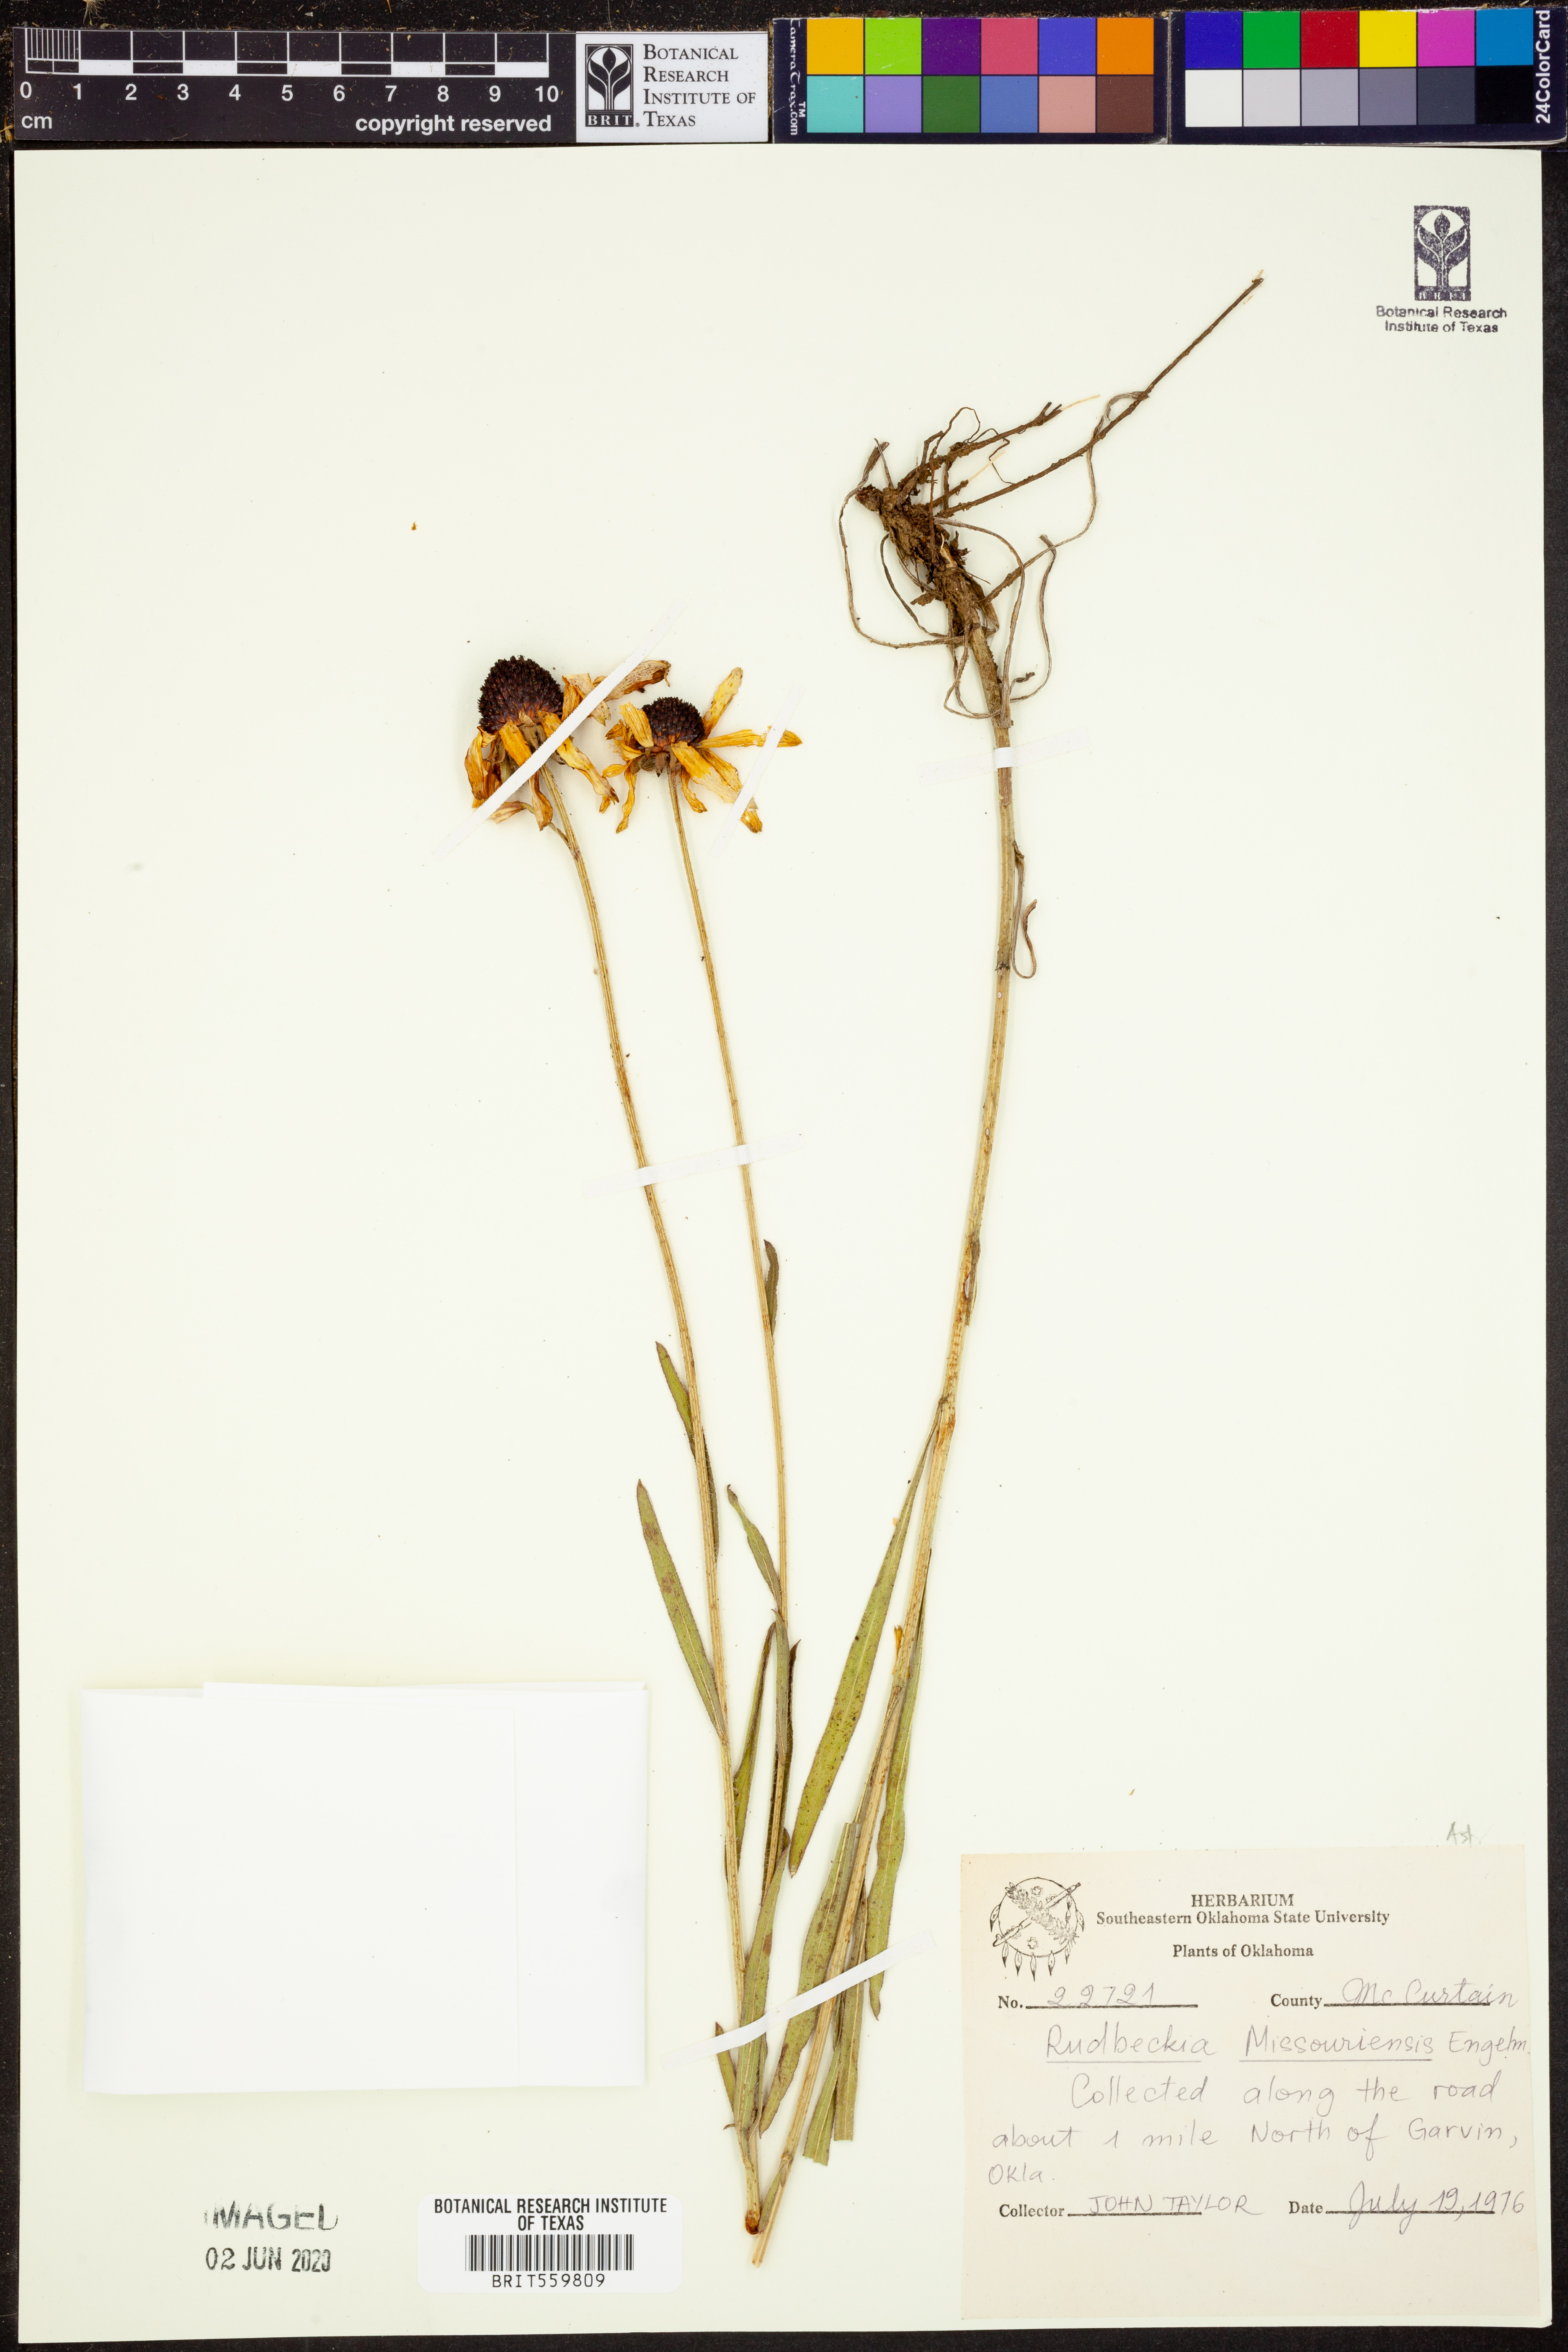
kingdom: Plantae
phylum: Tracheophyta
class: Magnoliopsida
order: Asterales
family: Asteraceae
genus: Rudbeckia
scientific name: Rudbeckia missouriensis
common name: Missouri coneflower
